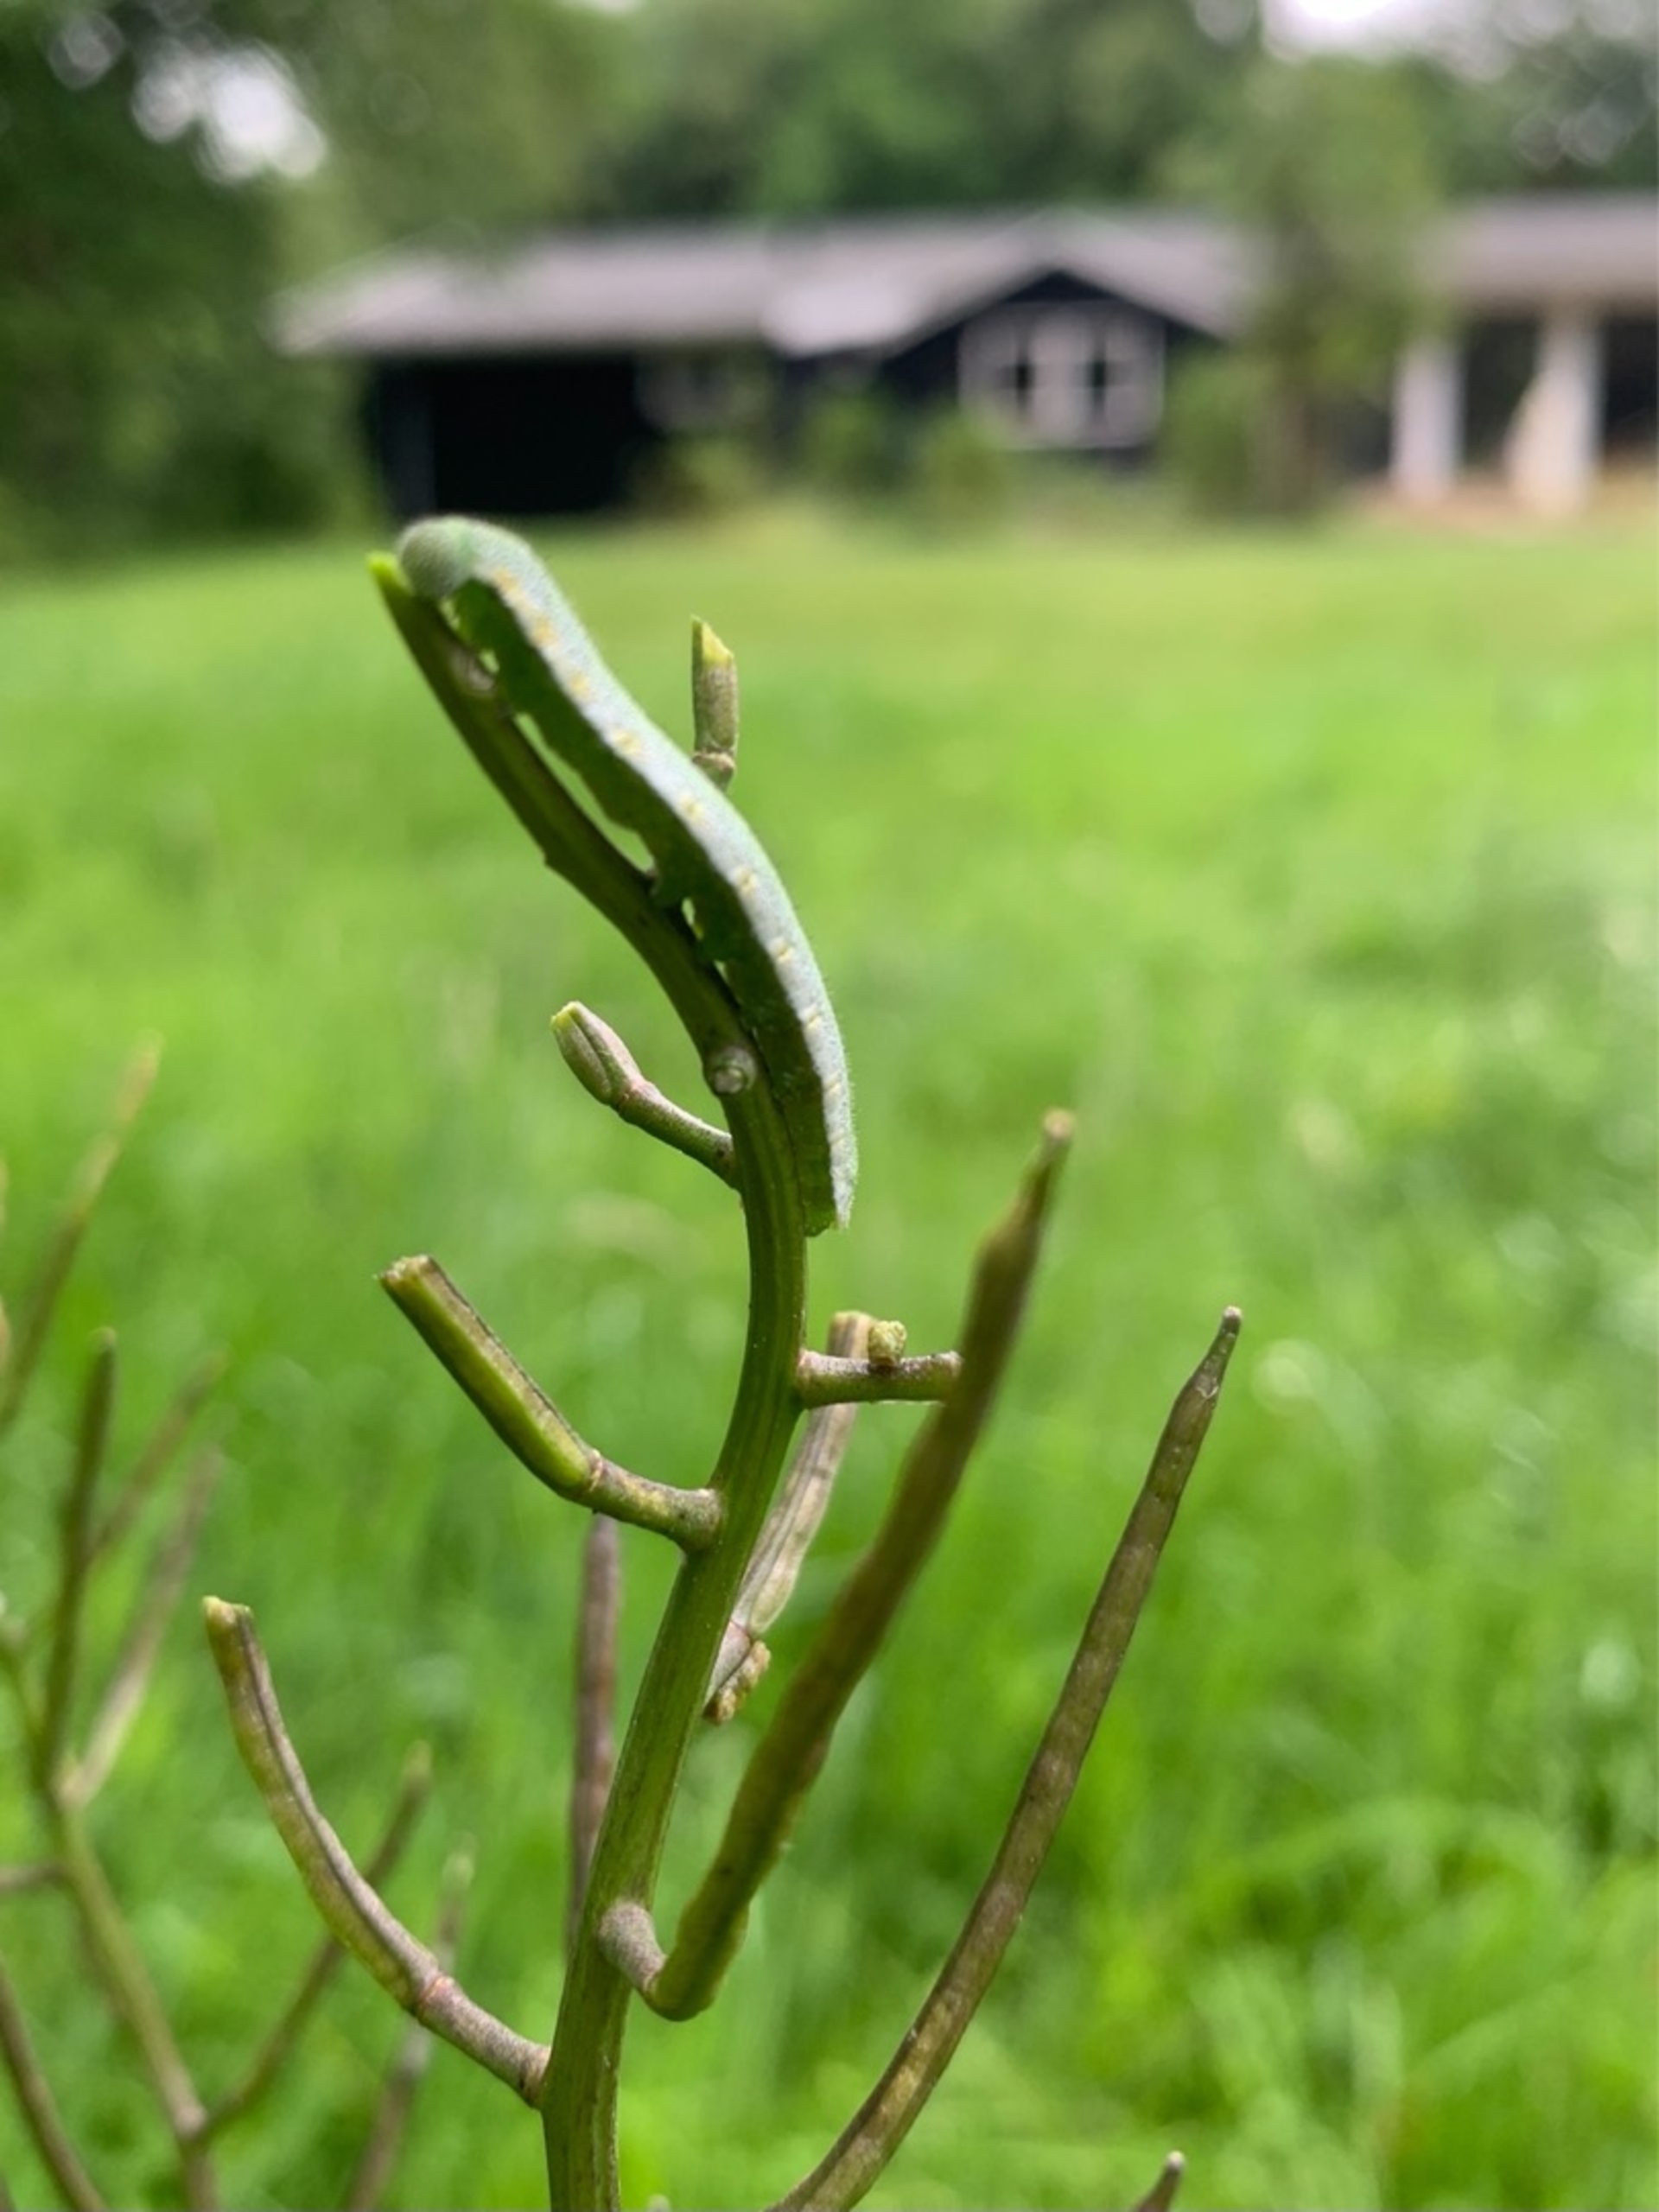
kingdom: Animalia
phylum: Arthropoda
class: Insecta
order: Lepidoptera
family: Pieridae
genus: Anthocharis
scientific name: Anthocharis cardamines
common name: Aurora
